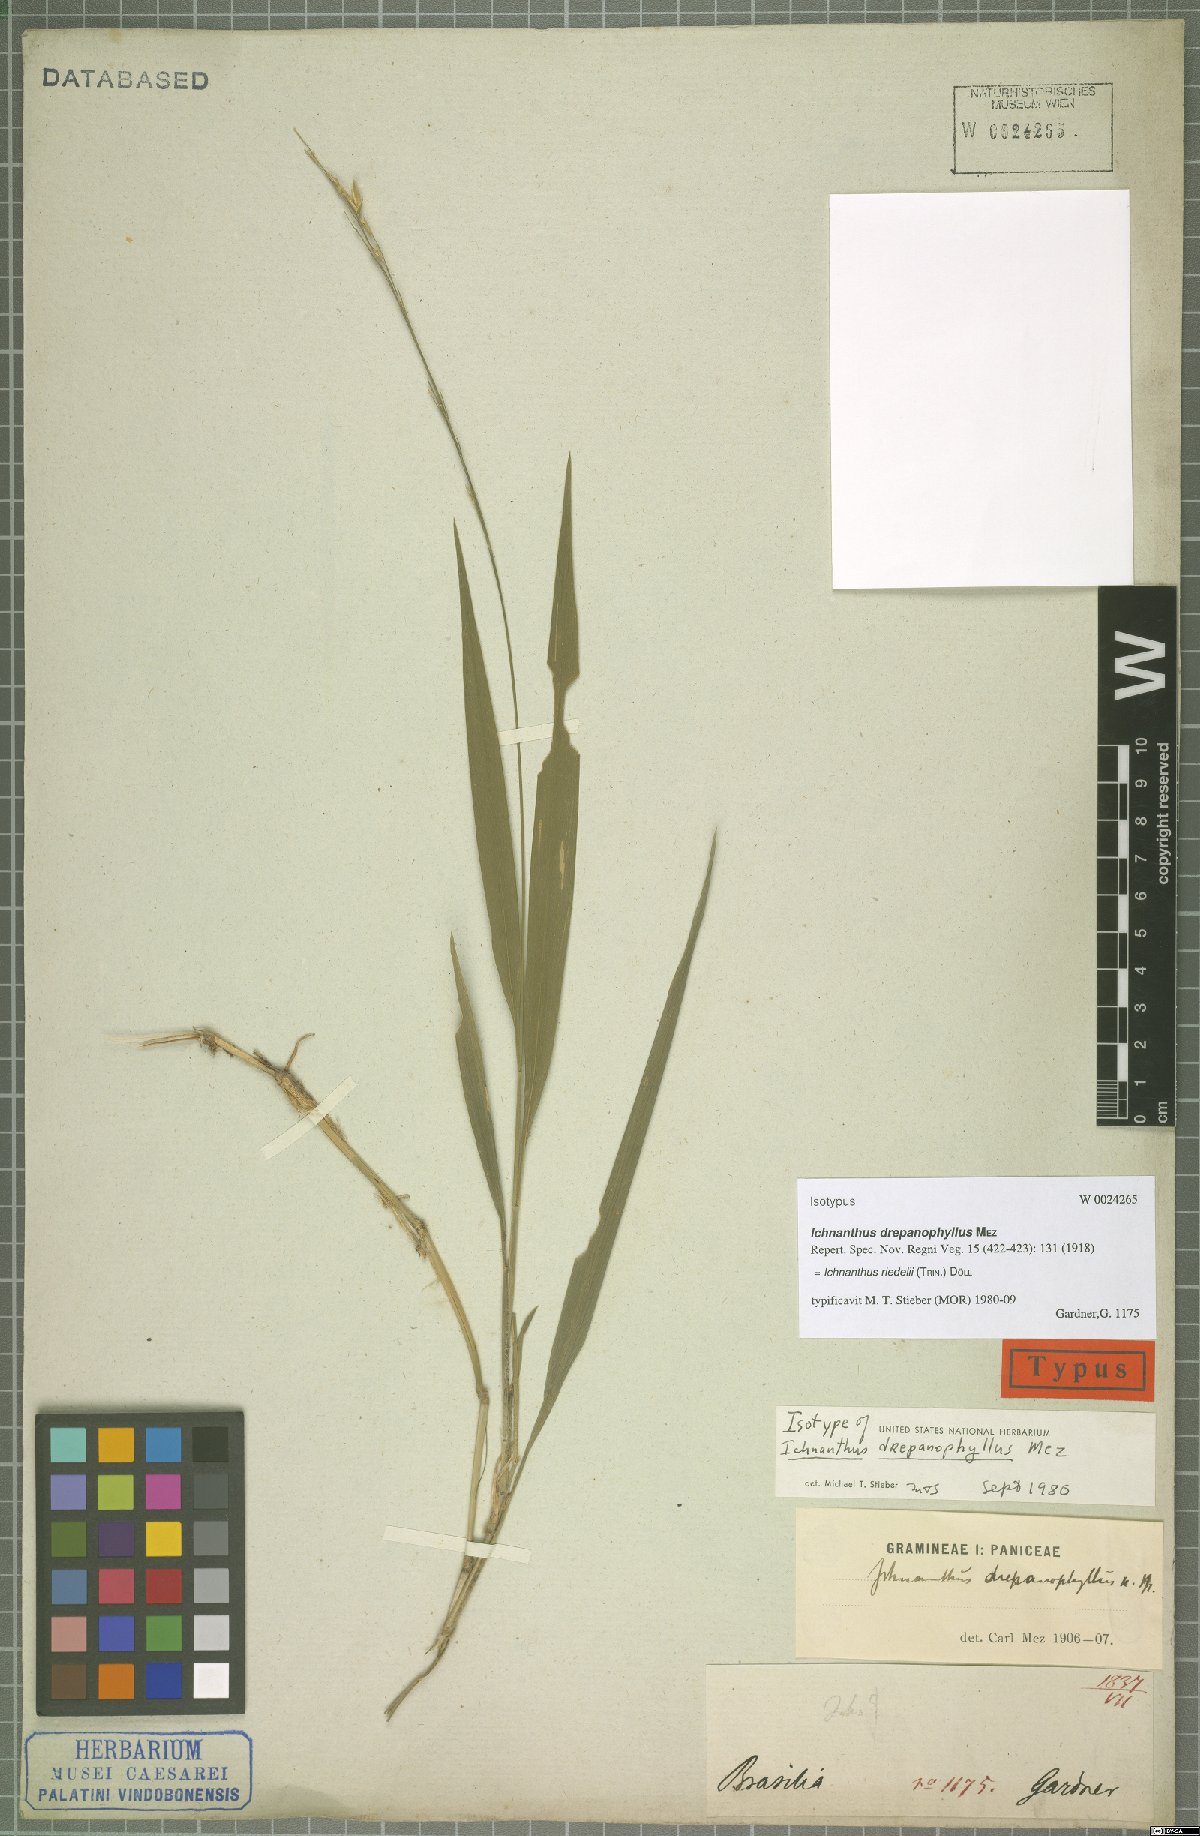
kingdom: Plantae
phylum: Tracheophyta
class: Liliopsida
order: Poales
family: Poaceae
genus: Ichnanthus
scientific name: Ichnanthus riedelii
